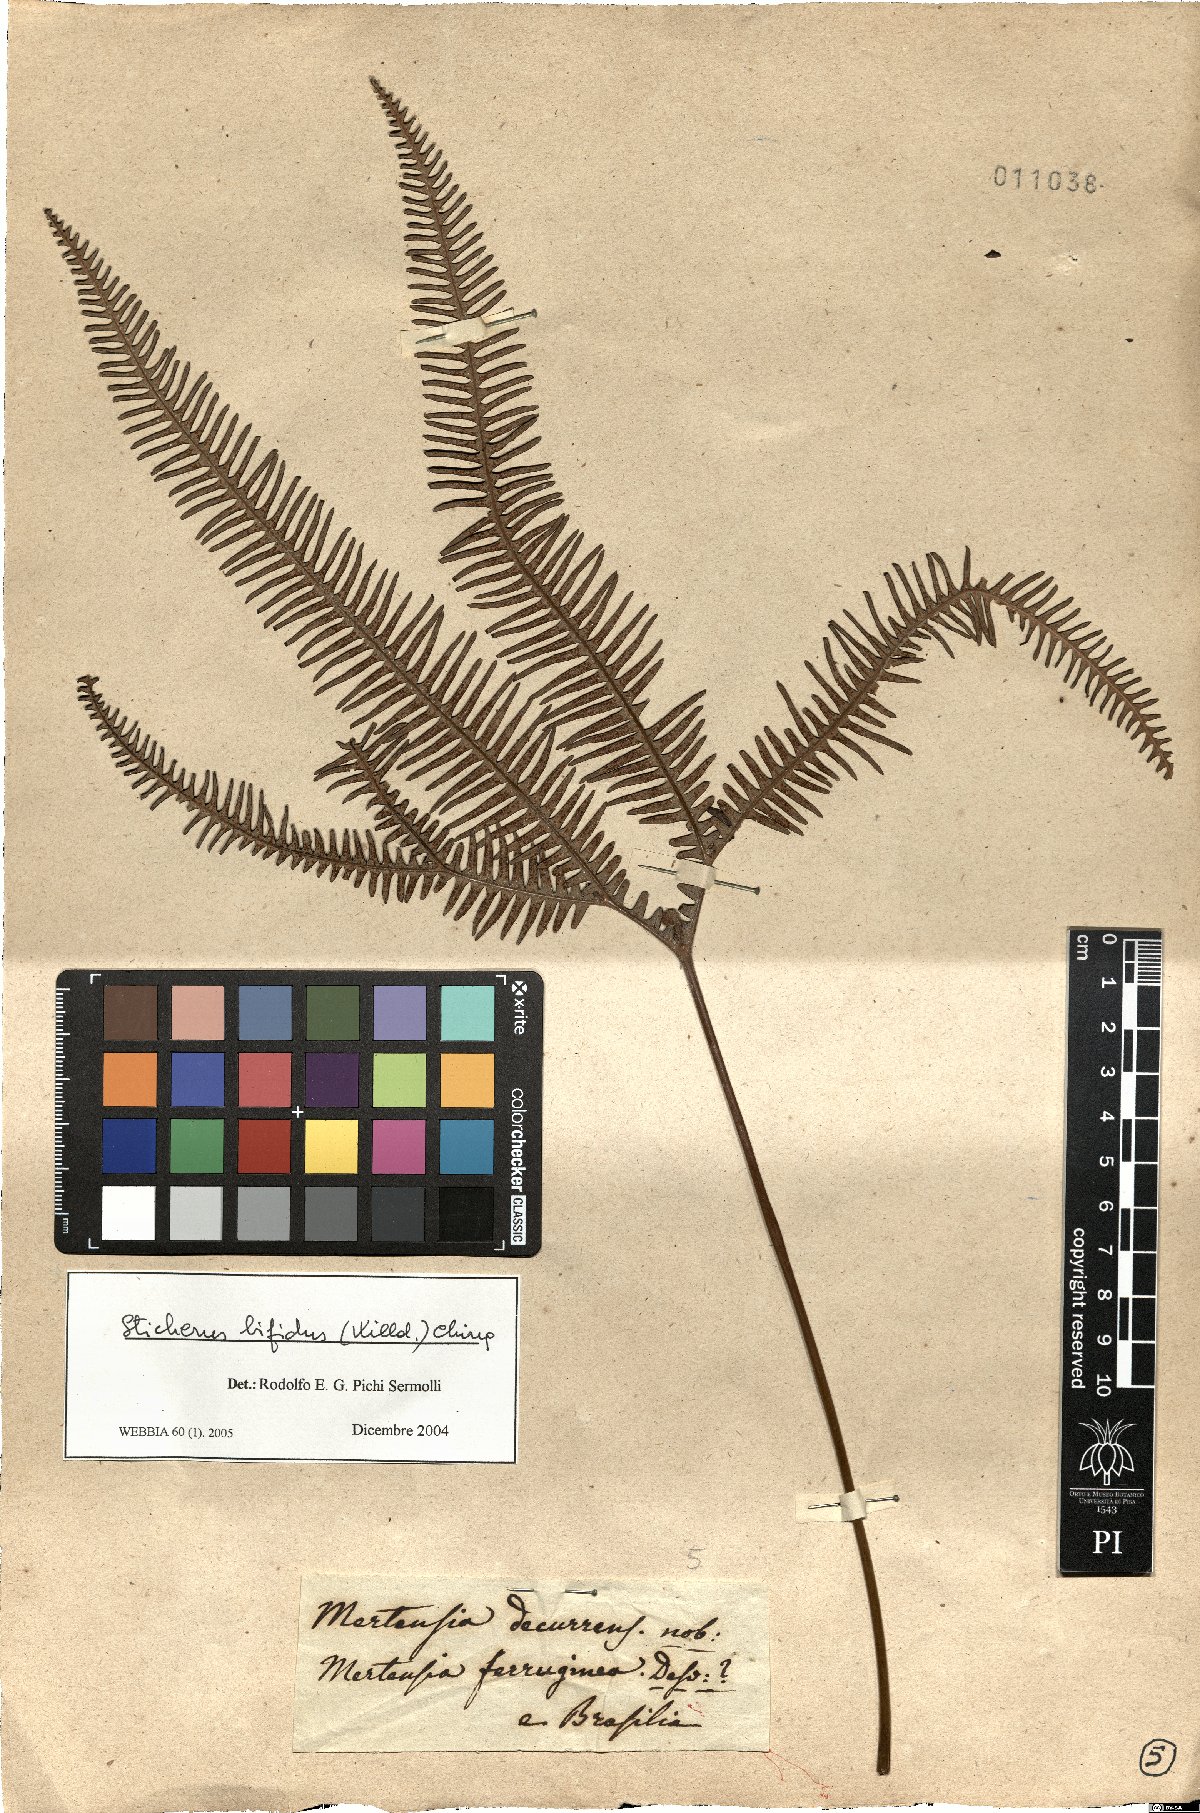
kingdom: Plantae
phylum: Tracheophyta
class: Polypodiopsida
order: Gleicheniales
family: Gleicheniaceae
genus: Sticherus
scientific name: Sticherus bifidus
